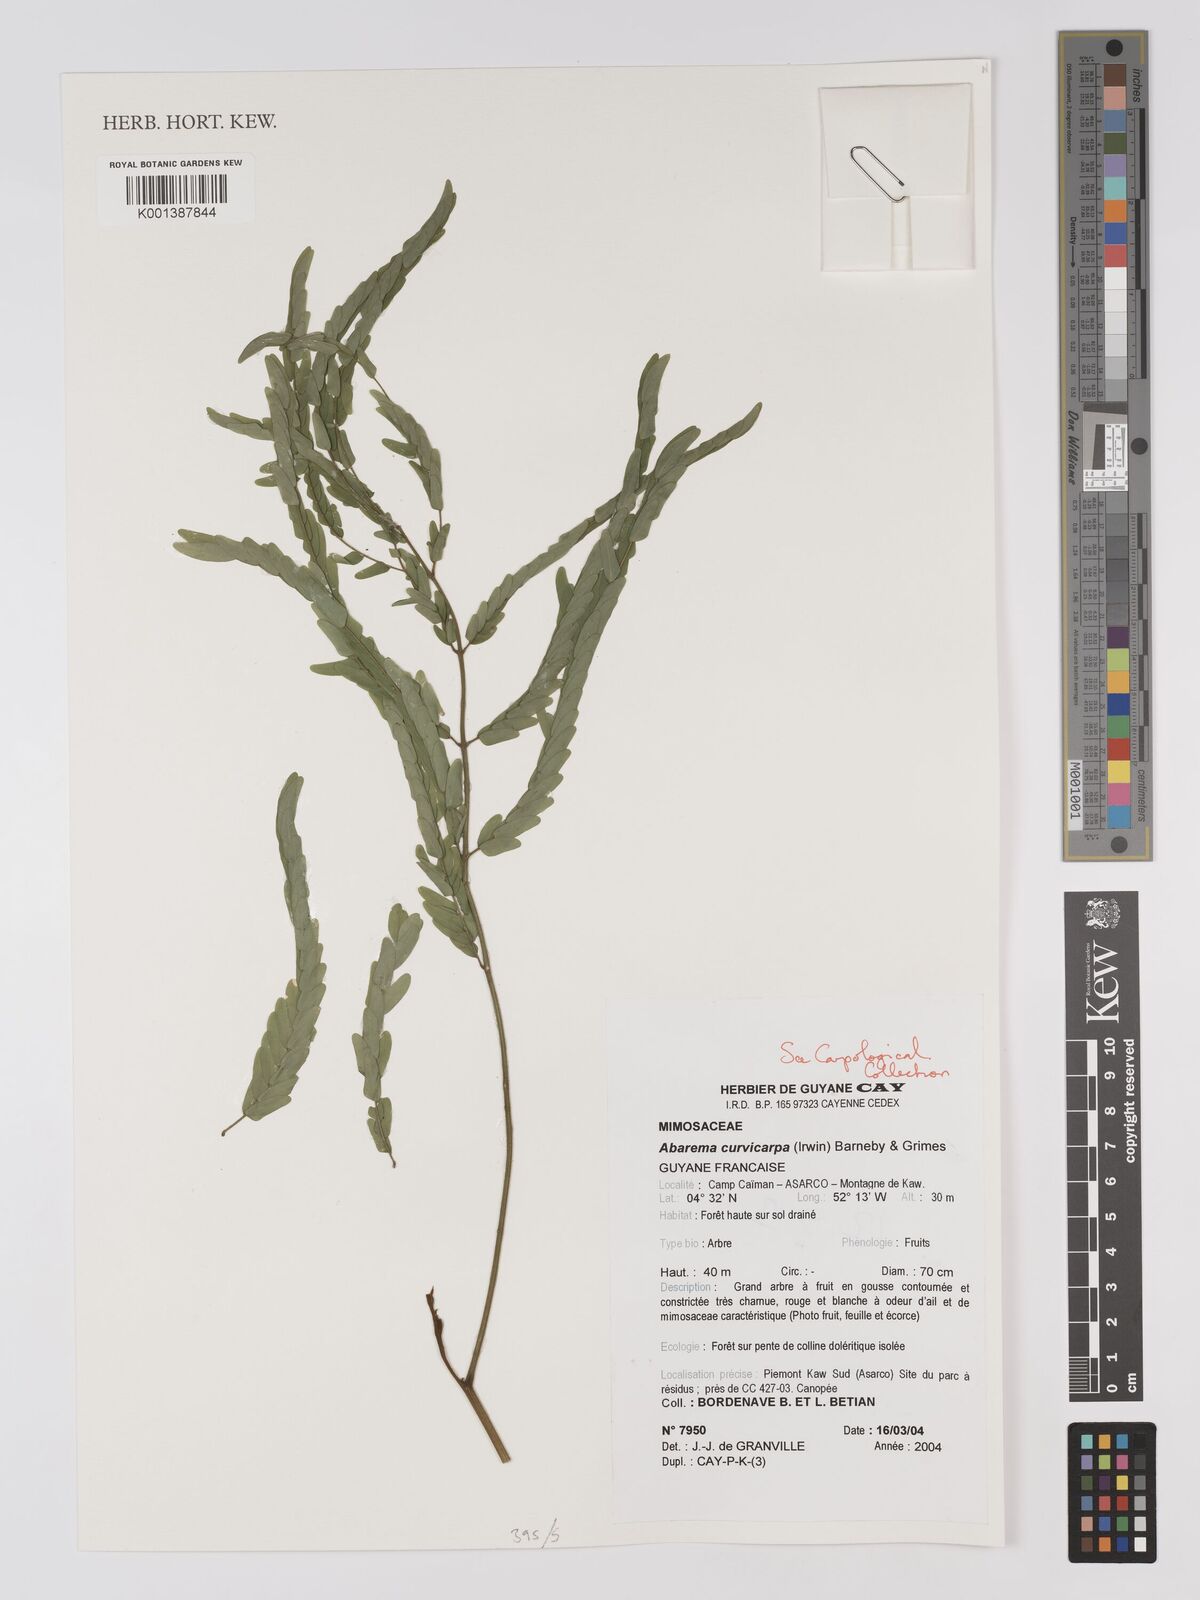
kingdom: Plantae
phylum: Tracheophyta
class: Magnoliopsida
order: Fabales
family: Fabaceae
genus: Jupunba
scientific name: Jupunba curvicarpa
